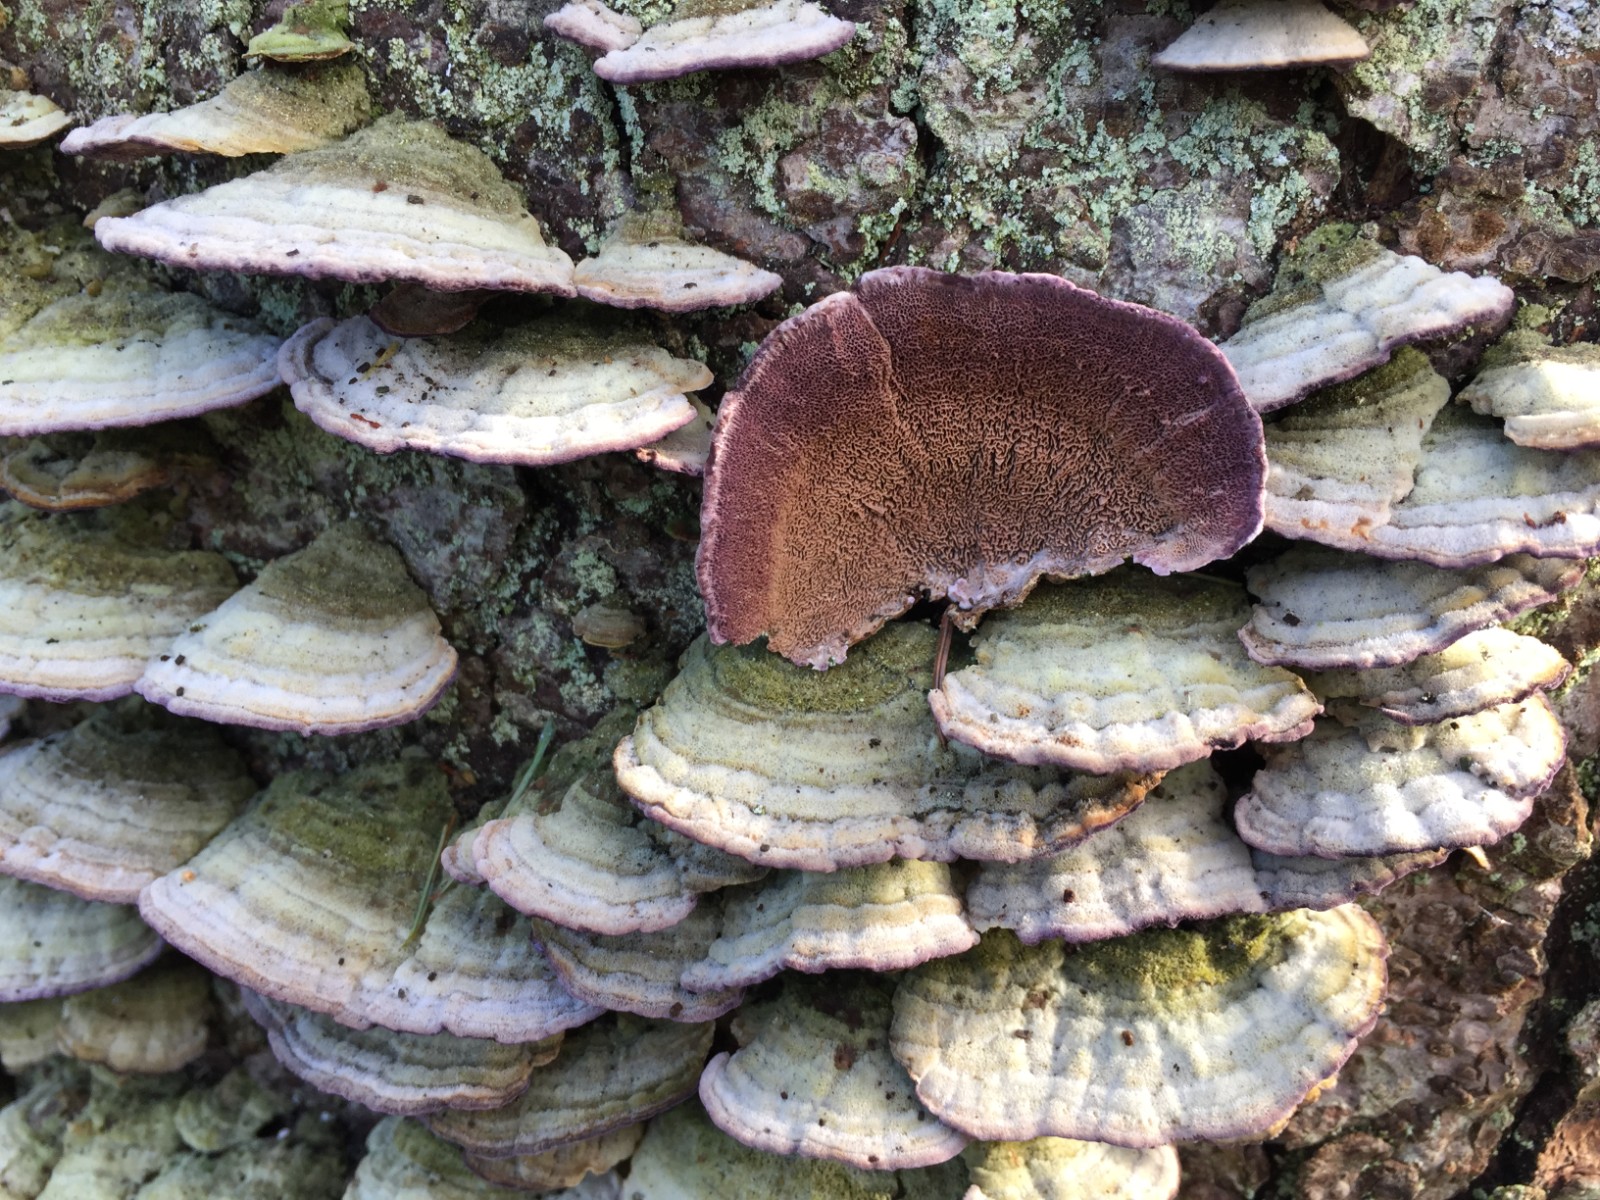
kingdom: Fungi
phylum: Basidiomycota
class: Agaricomycetes
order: Hymenochaetales
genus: Trichaptum
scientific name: Trichaptum abietinum
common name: almindelig violporesvamp
